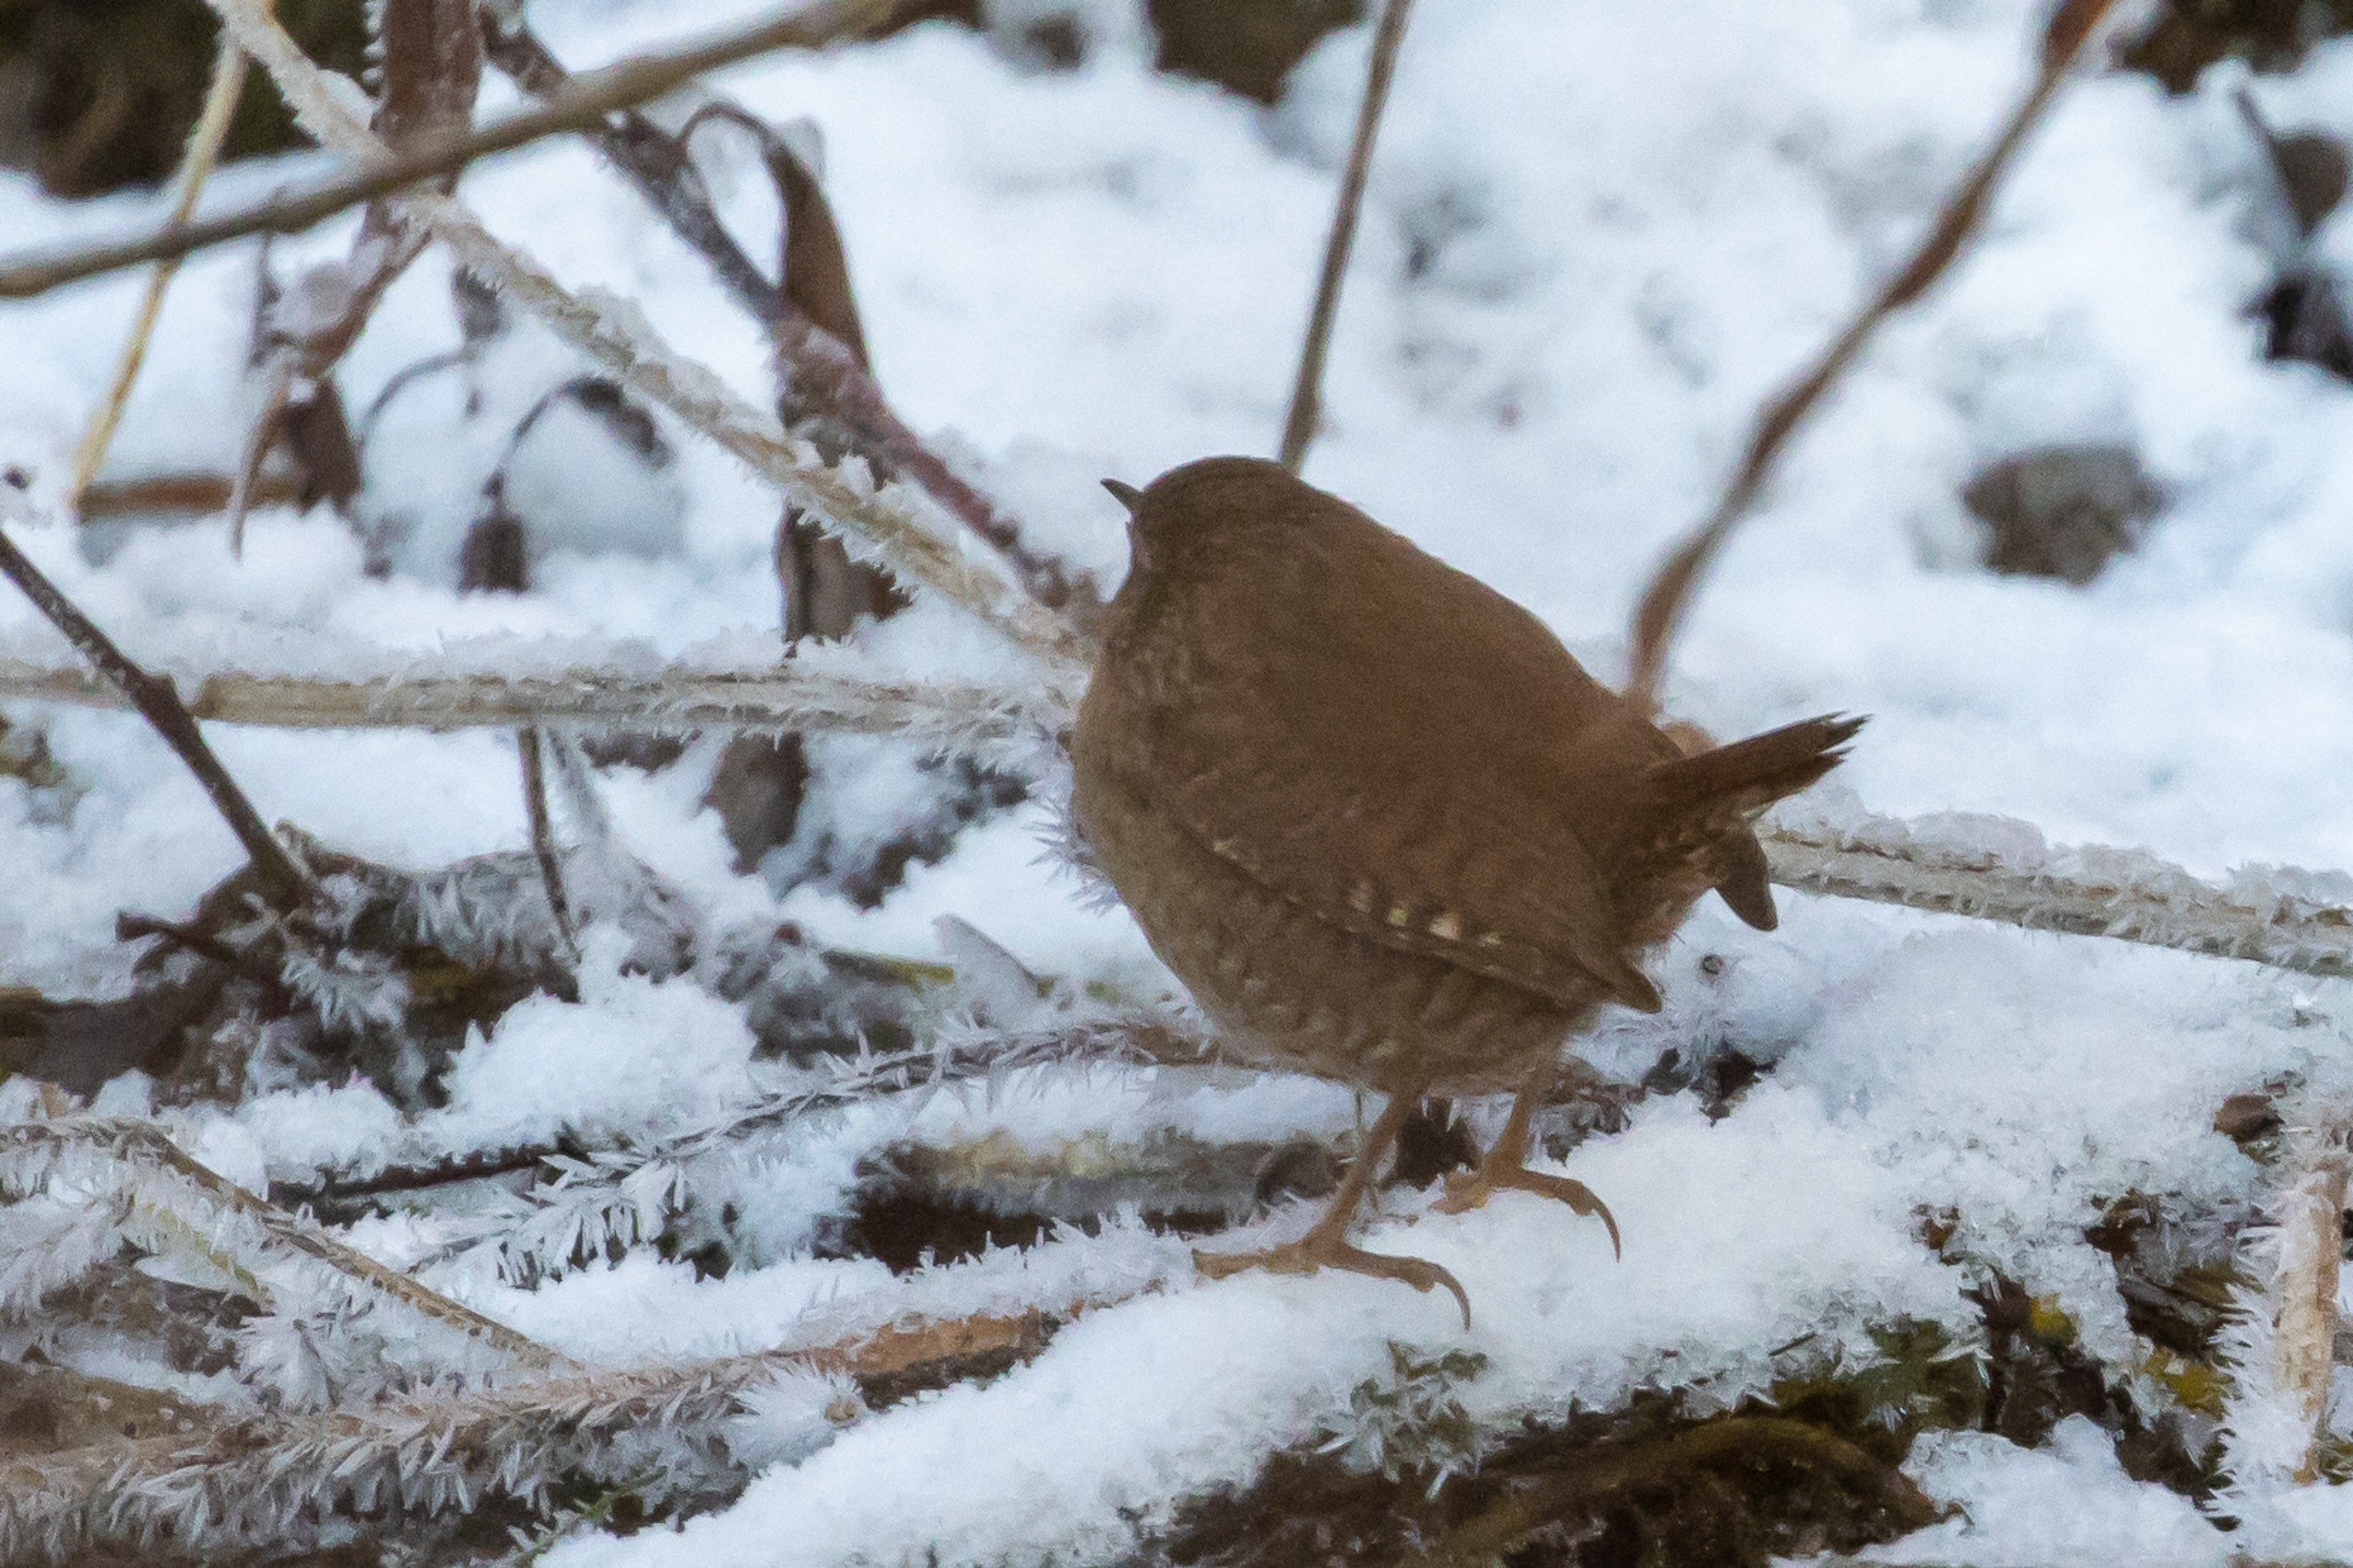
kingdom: Animalia
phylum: Chordata
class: Aves
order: Passeriformes
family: Troglodytidae
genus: Troglodytes
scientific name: Troglodytes troglodytes
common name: Gærdesmutte
